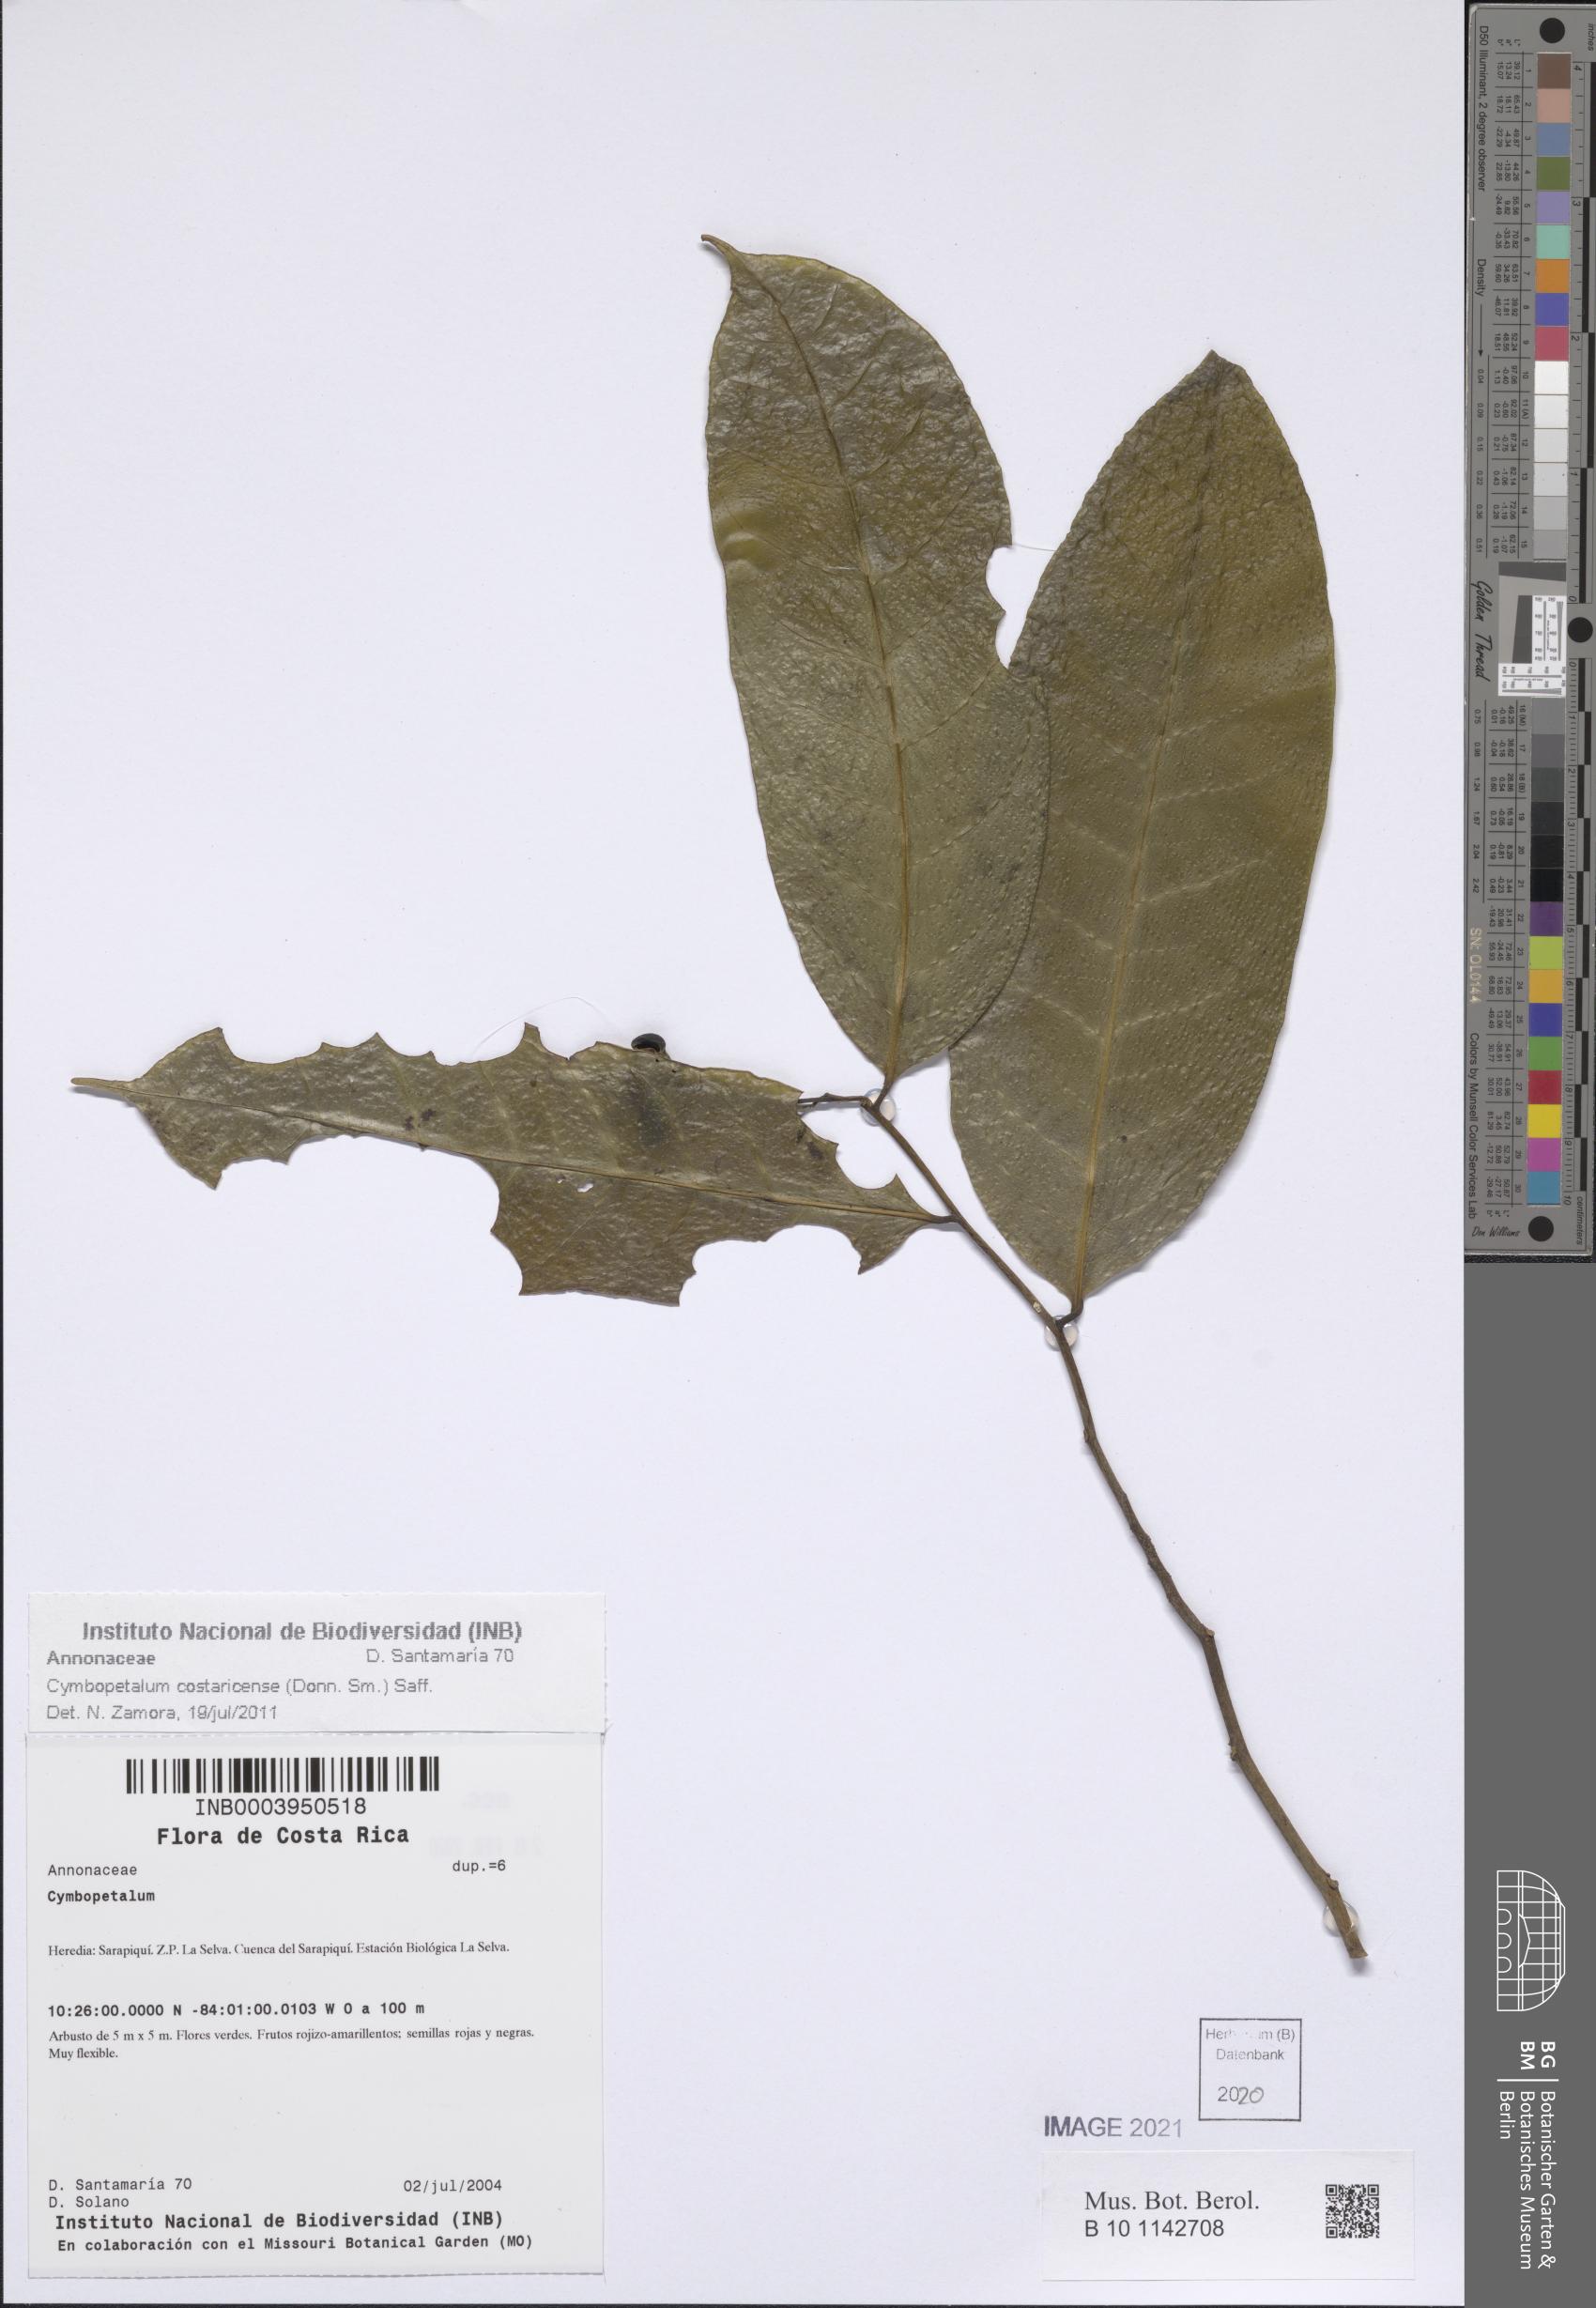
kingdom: Plantae
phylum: Tracheophyta
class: Magnoliopsida
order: Magnoliales
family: Annonaceae
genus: Cymbopetalum
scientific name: Cymbopetalum costaricense
